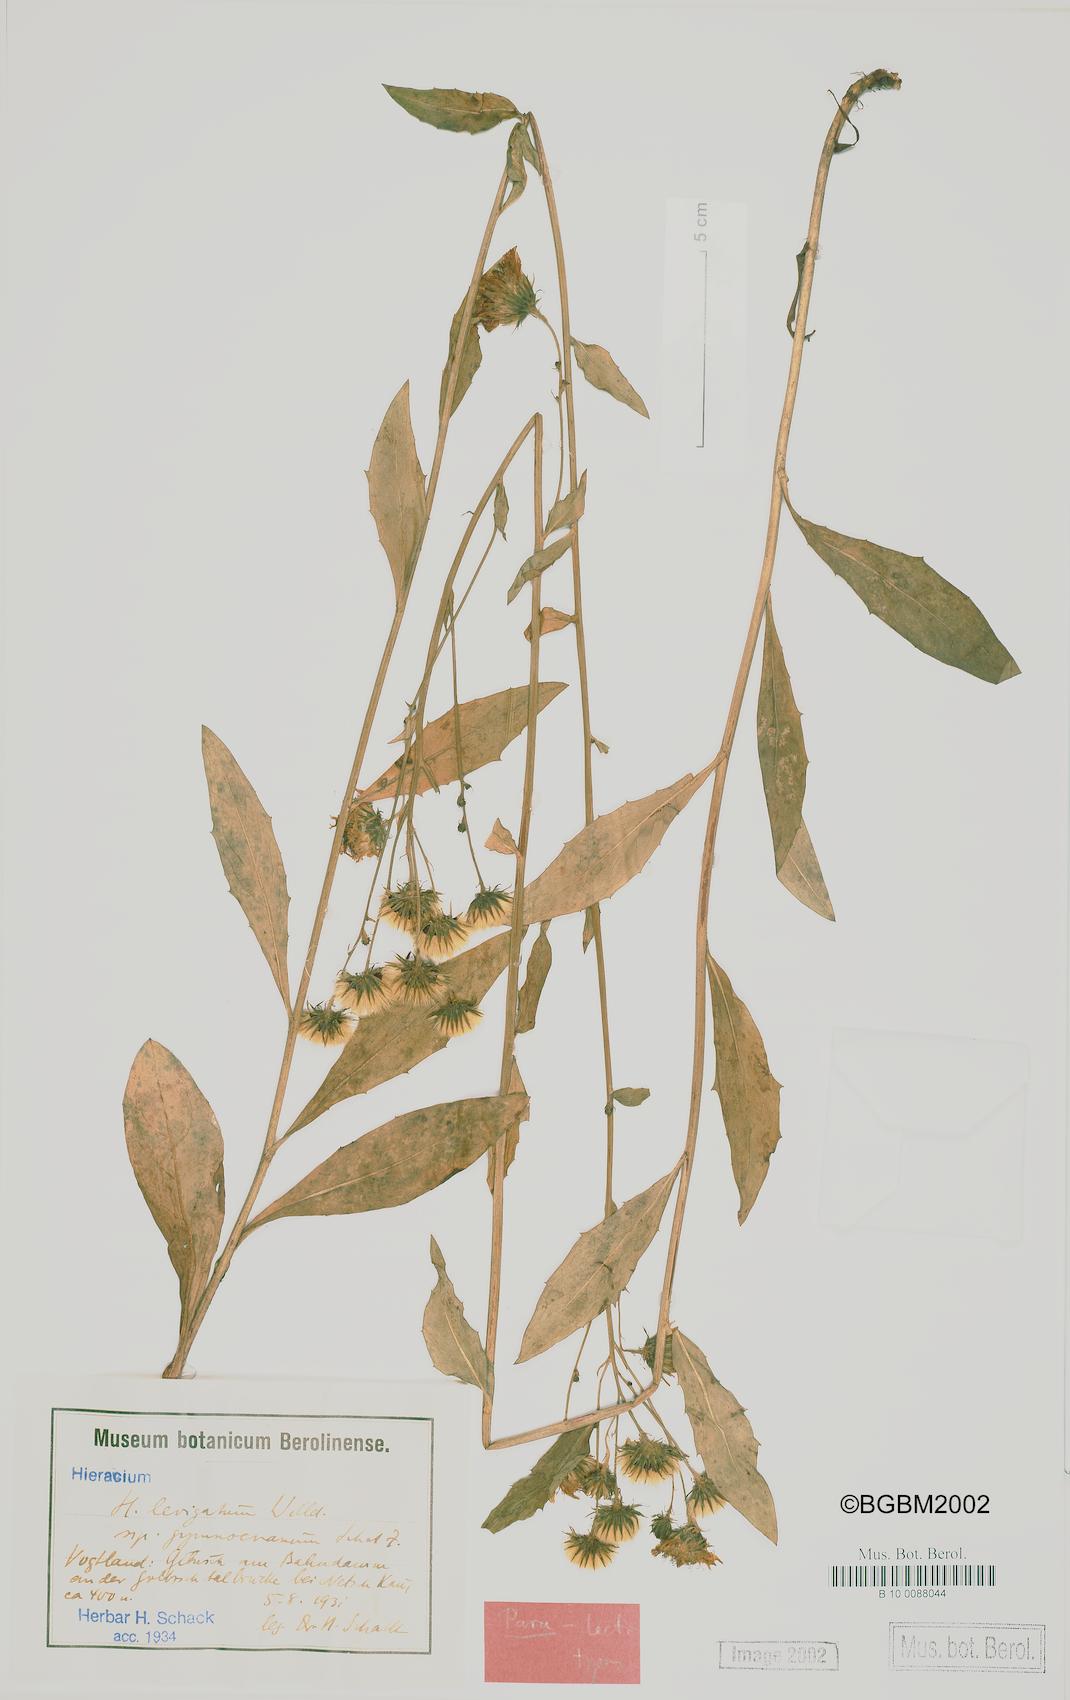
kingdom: Plantae
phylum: Tracheophyta
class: Magnoliopsida
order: Asterales
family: Asteraceae
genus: Hieracium
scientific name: Hieracium laevigatum
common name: Smooth hawkweed
